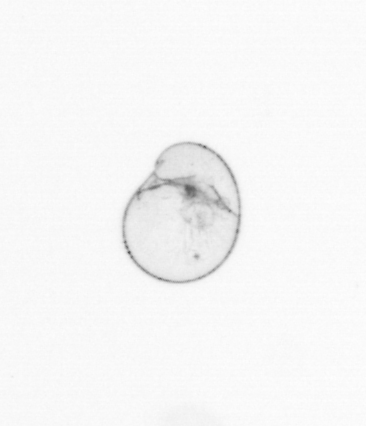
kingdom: Chromista
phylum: Myzozoa
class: Dinophyceae
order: Noctilucales
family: Noctilucaceae
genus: Noctiluca
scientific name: Noctiluca scintillans
